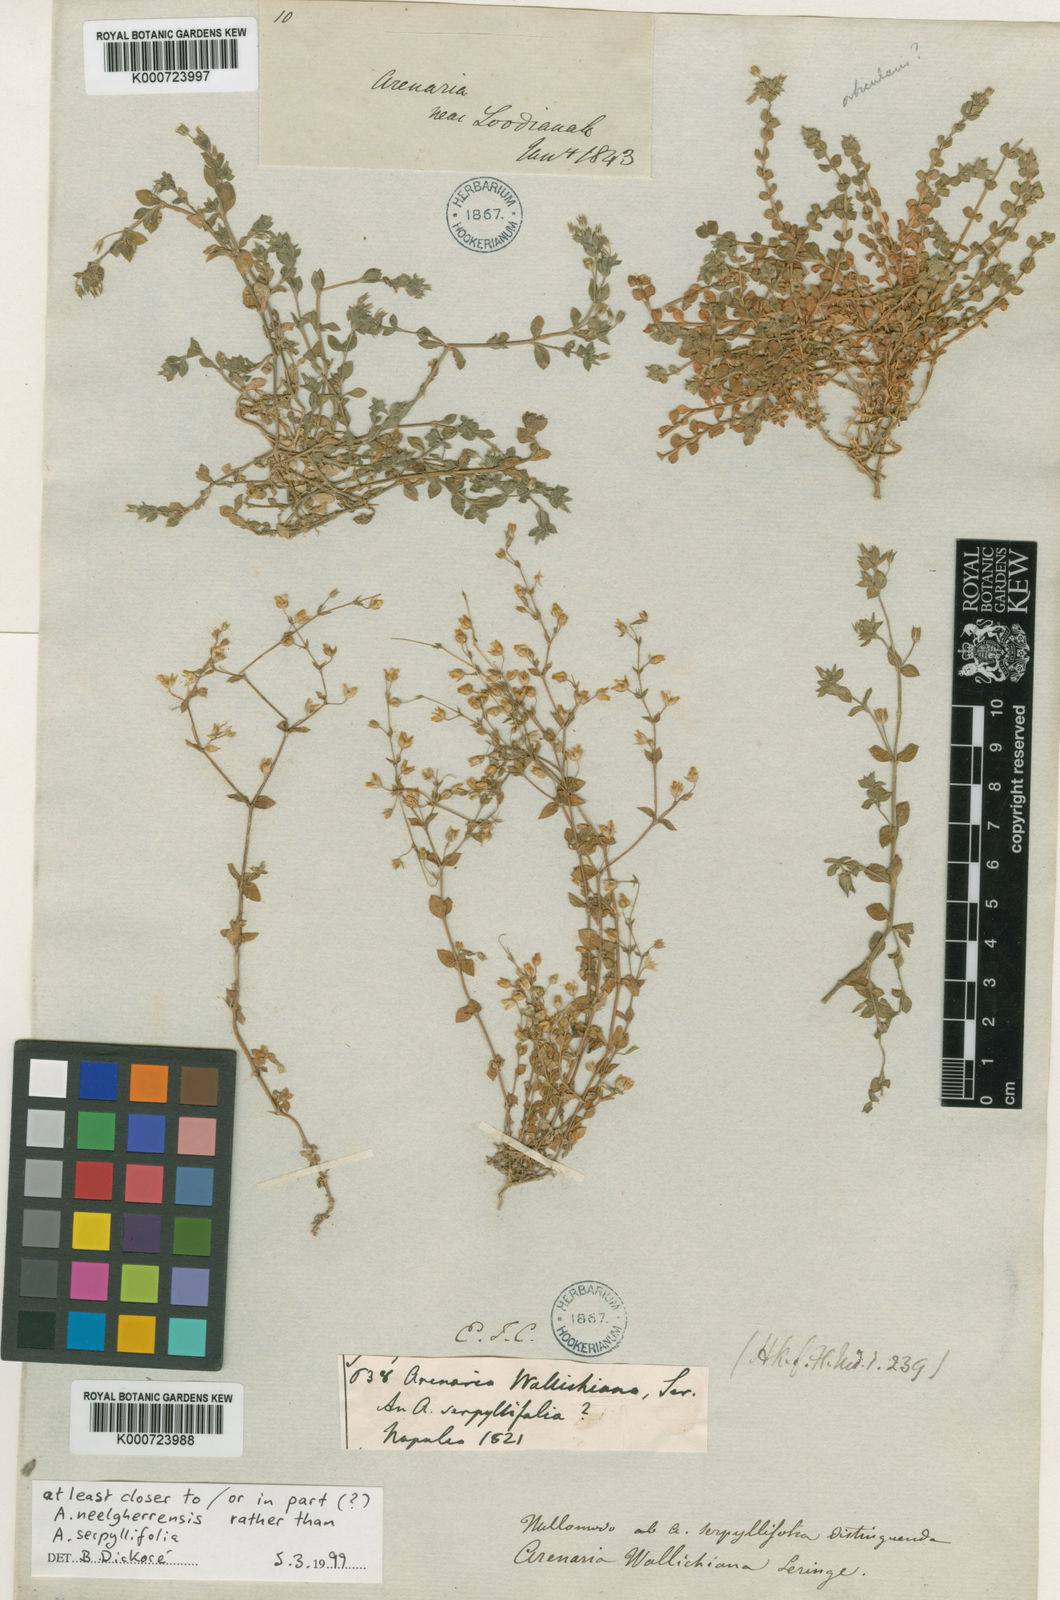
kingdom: Plantae
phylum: Tracheophyta
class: Magnoliopsida
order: Caryophyllales
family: Caryophyllaceae
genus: Arenaria
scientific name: Arenaria serpyllifolia
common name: Thyme-leaved sandwort
